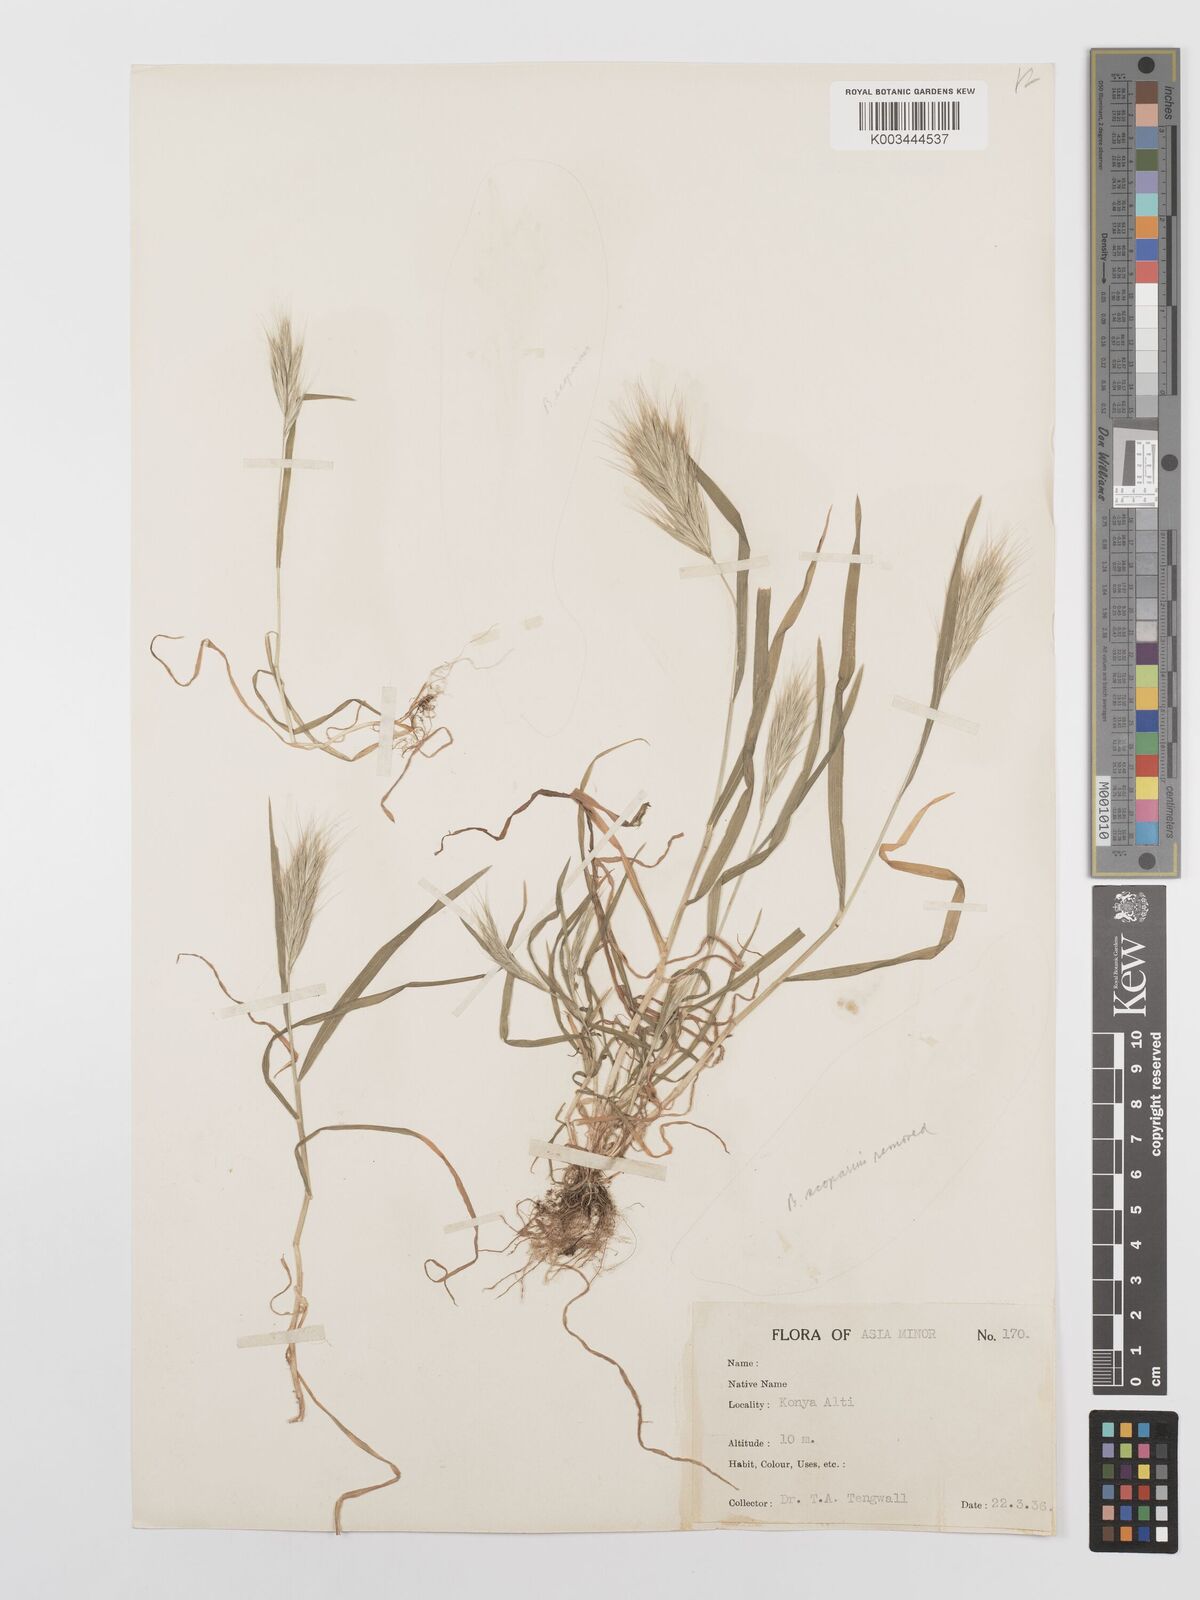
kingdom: Plantae
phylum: Tracheophyta
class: Liliopsida
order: Poales
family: Poaceae
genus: Bromus
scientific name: Bromus scoparius
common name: Broom brome
